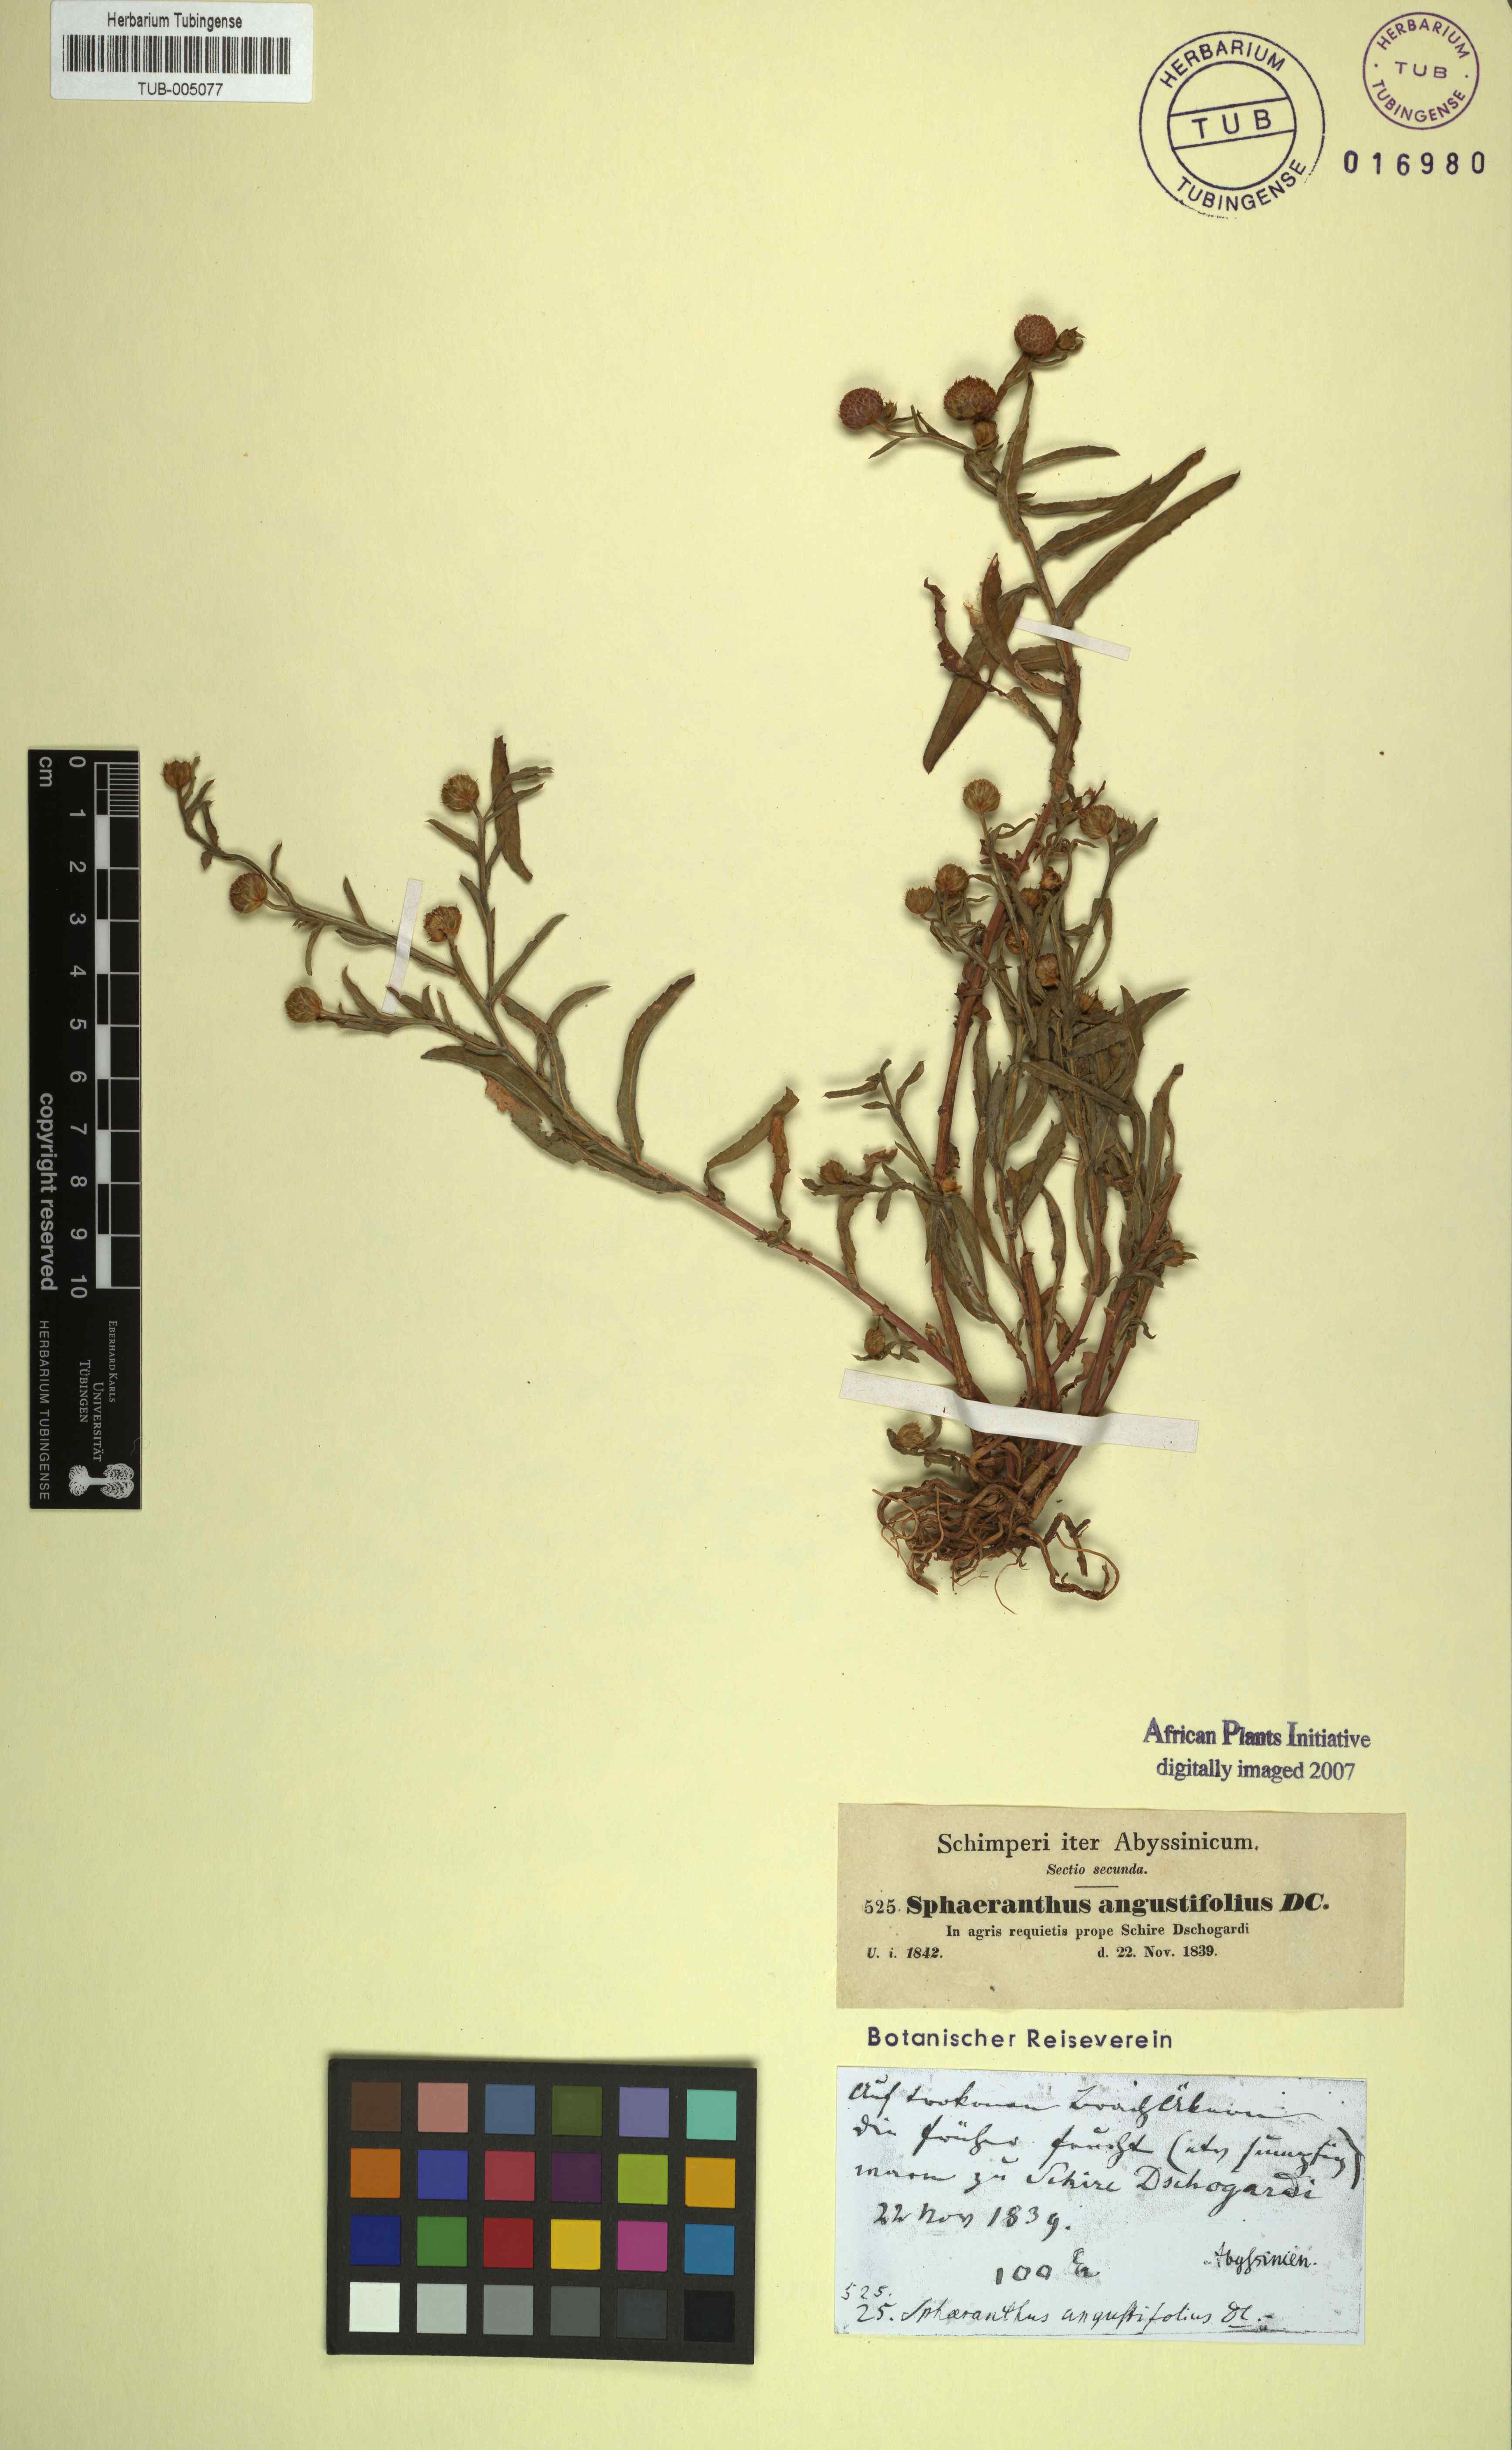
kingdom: Plantae
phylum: Tracheophyta
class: Magnoliopsida
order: Asterales
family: Asteraceae
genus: Sphaeranthus
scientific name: Sphaeranthus angustifolius
